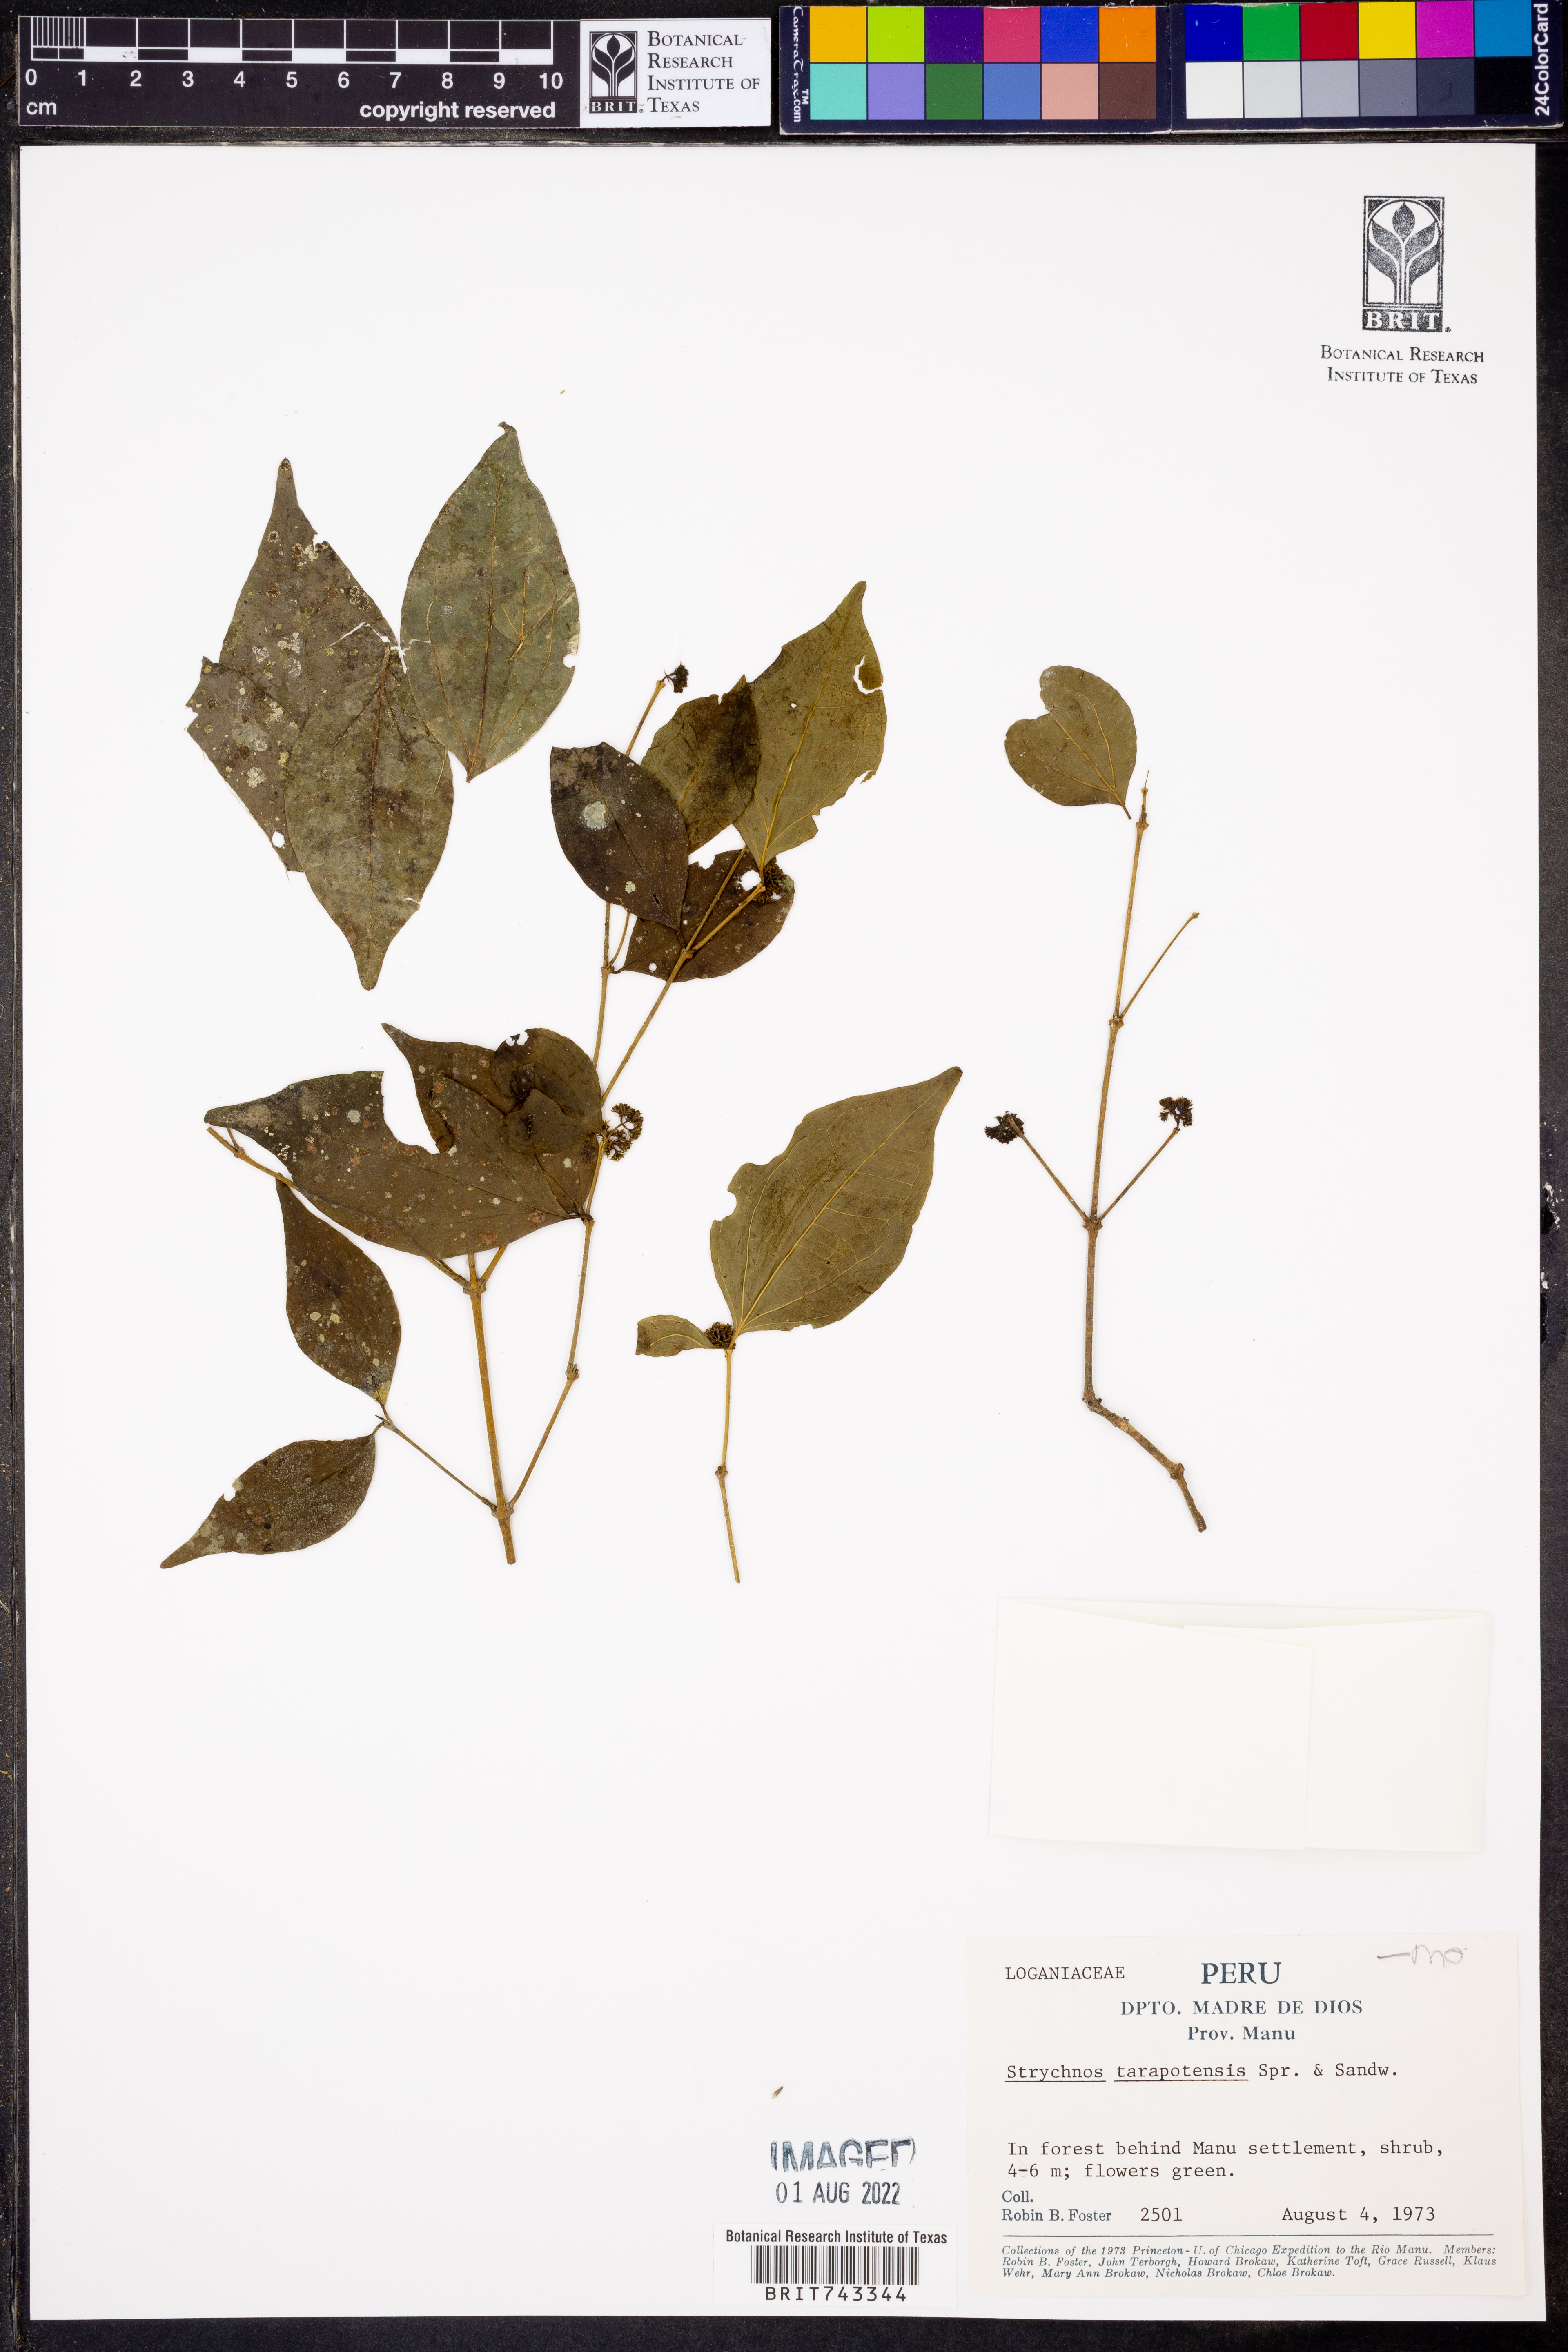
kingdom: Plantae
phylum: Tracheophyta
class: Magnoliopsida
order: Gentianales
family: Loganiaceae
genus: Strychnos
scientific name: Strychnos
